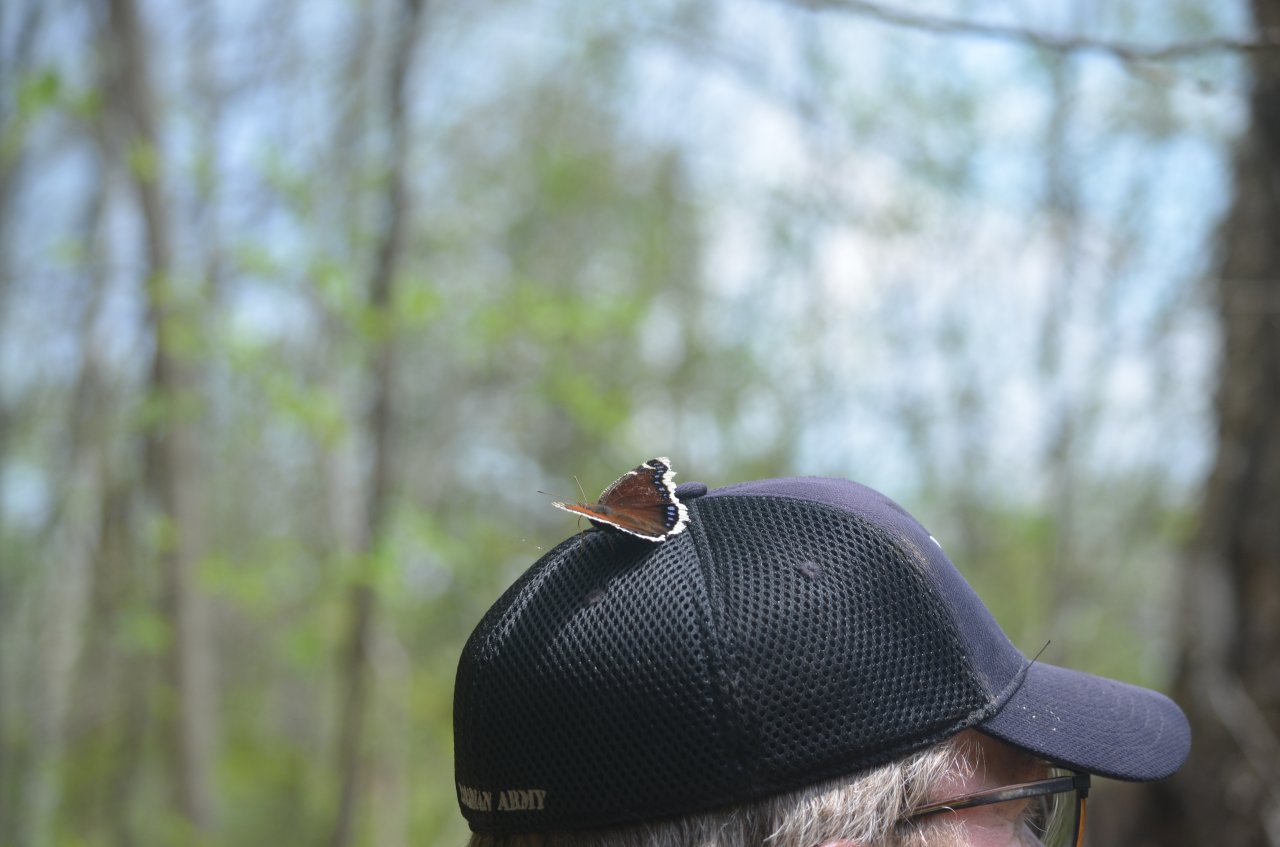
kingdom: Animalia
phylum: Arthropoda
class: Insecta
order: Lepidoptera
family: Nymphalidae
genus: Nymphalis
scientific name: Nymphalis antiopa
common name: Mourning Cloak
